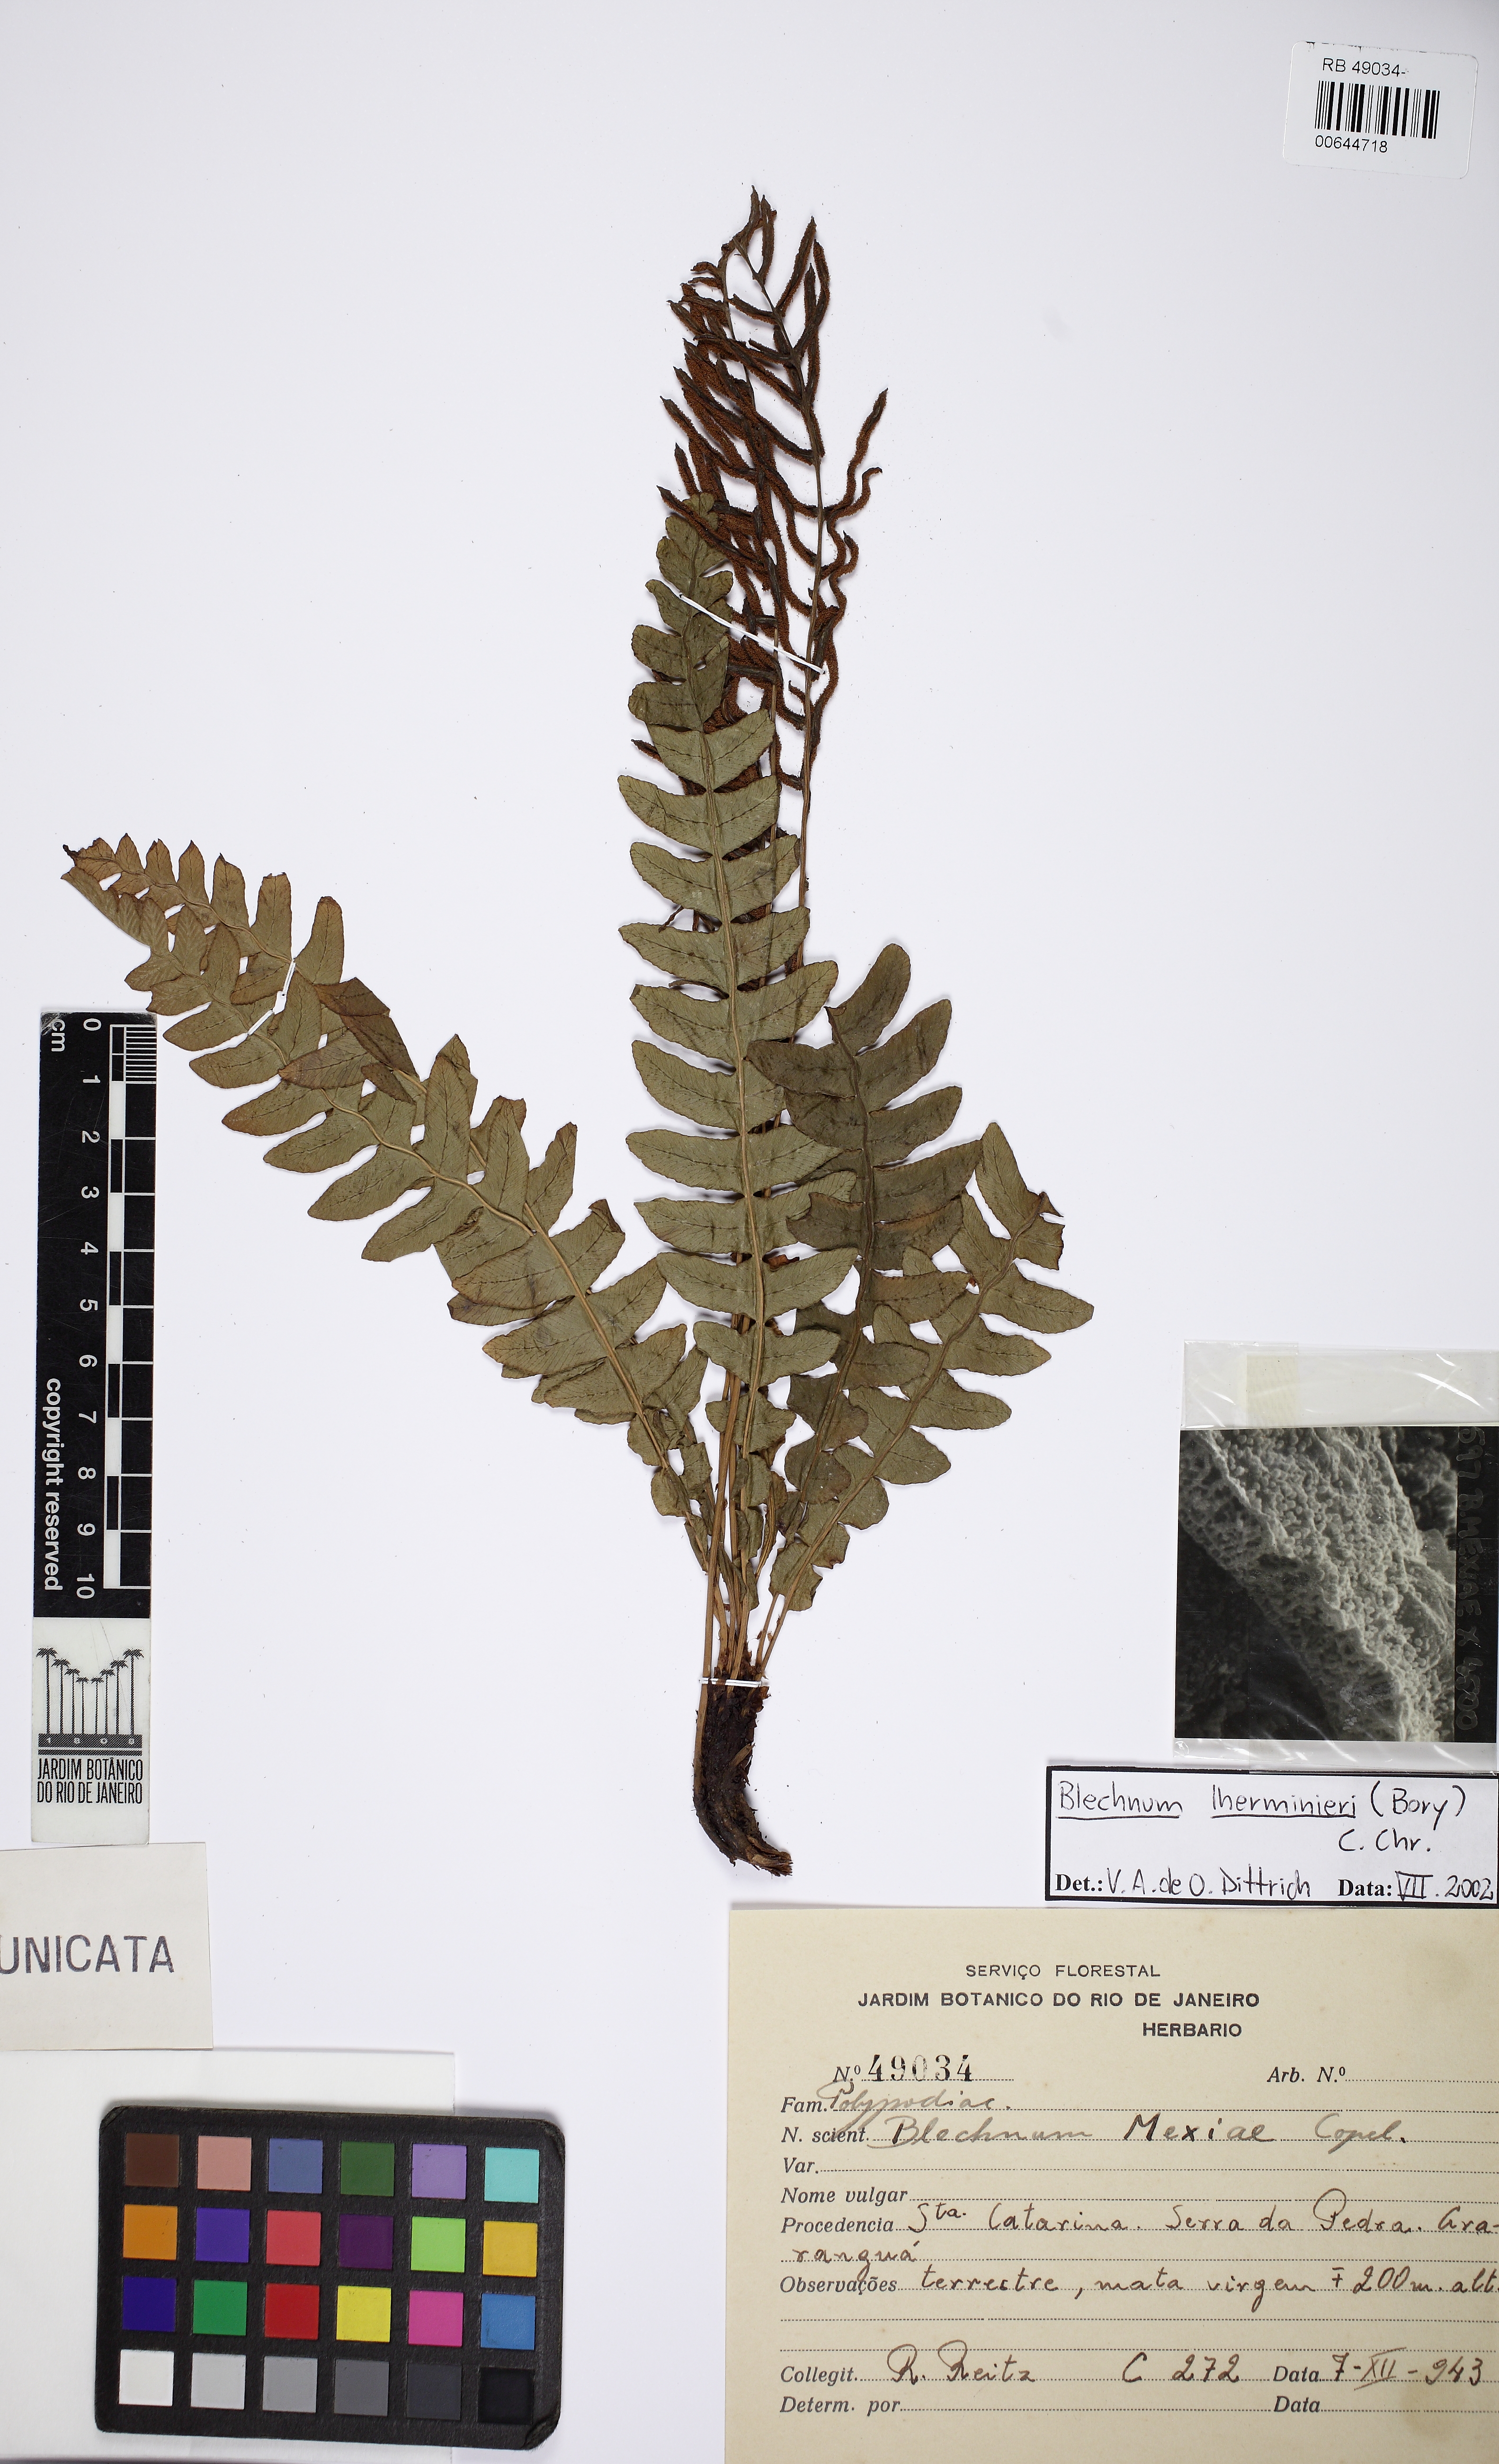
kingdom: Plantae
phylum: Tracheophyta
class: Polypodiopsida
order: Polypodiales
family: Blechnaceae
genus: Austroblechnum
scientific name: Austroblechnum lehmannii
